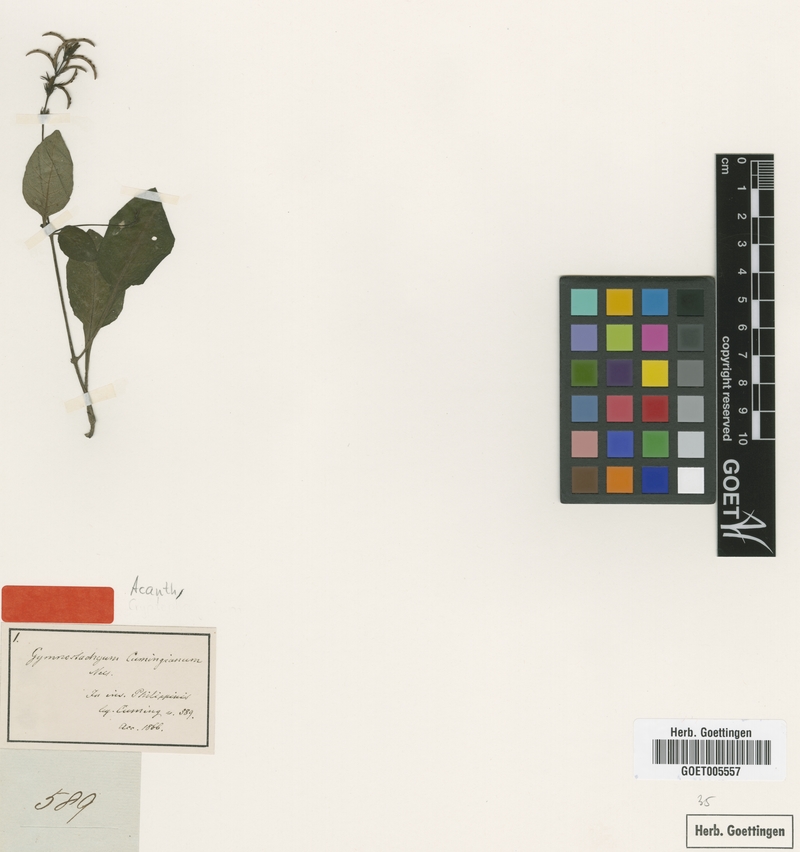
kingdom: Plantae
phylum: Tracheophyta
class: Magnoliopsida
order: Lamiales
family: Acanthaceae
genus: Gymnostachyum
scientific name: Gymnostachyum cumingianum
